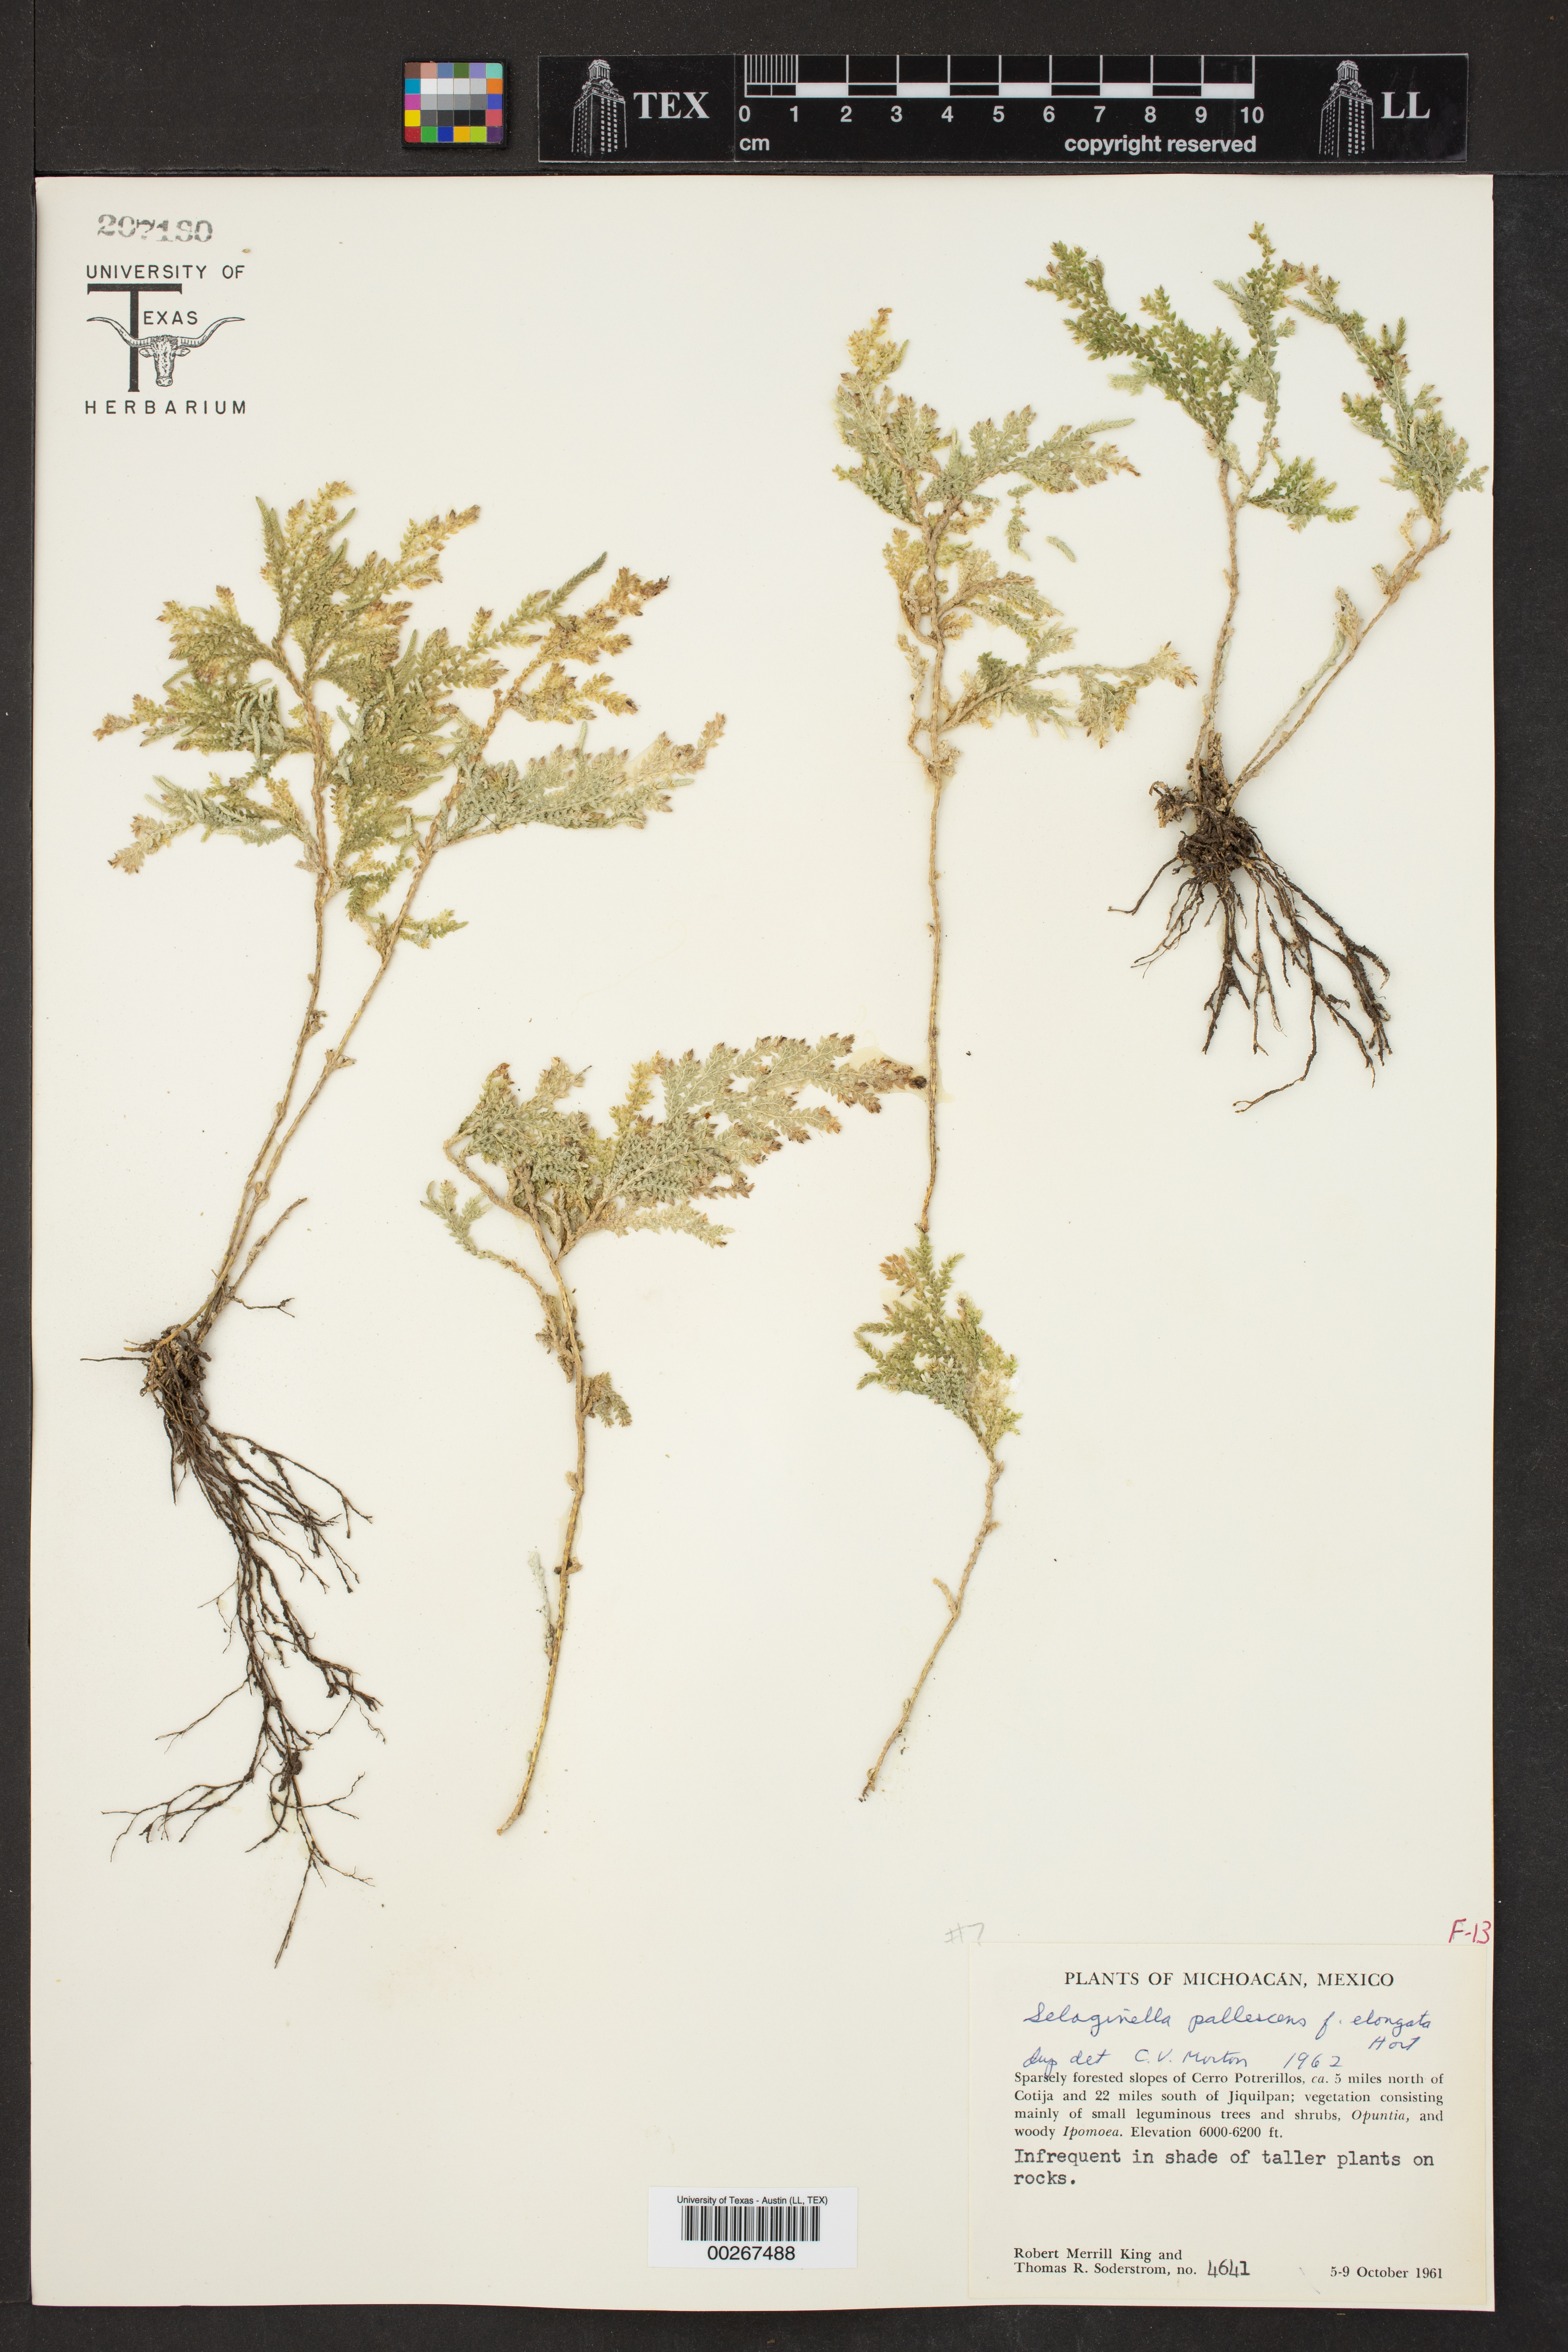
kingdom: Plantae
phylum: Tracheophyta
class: Lycopodiopsida
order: Selaginellales
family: Selaginellaceae
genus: Selaginella
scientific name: Selaginella pallescens
